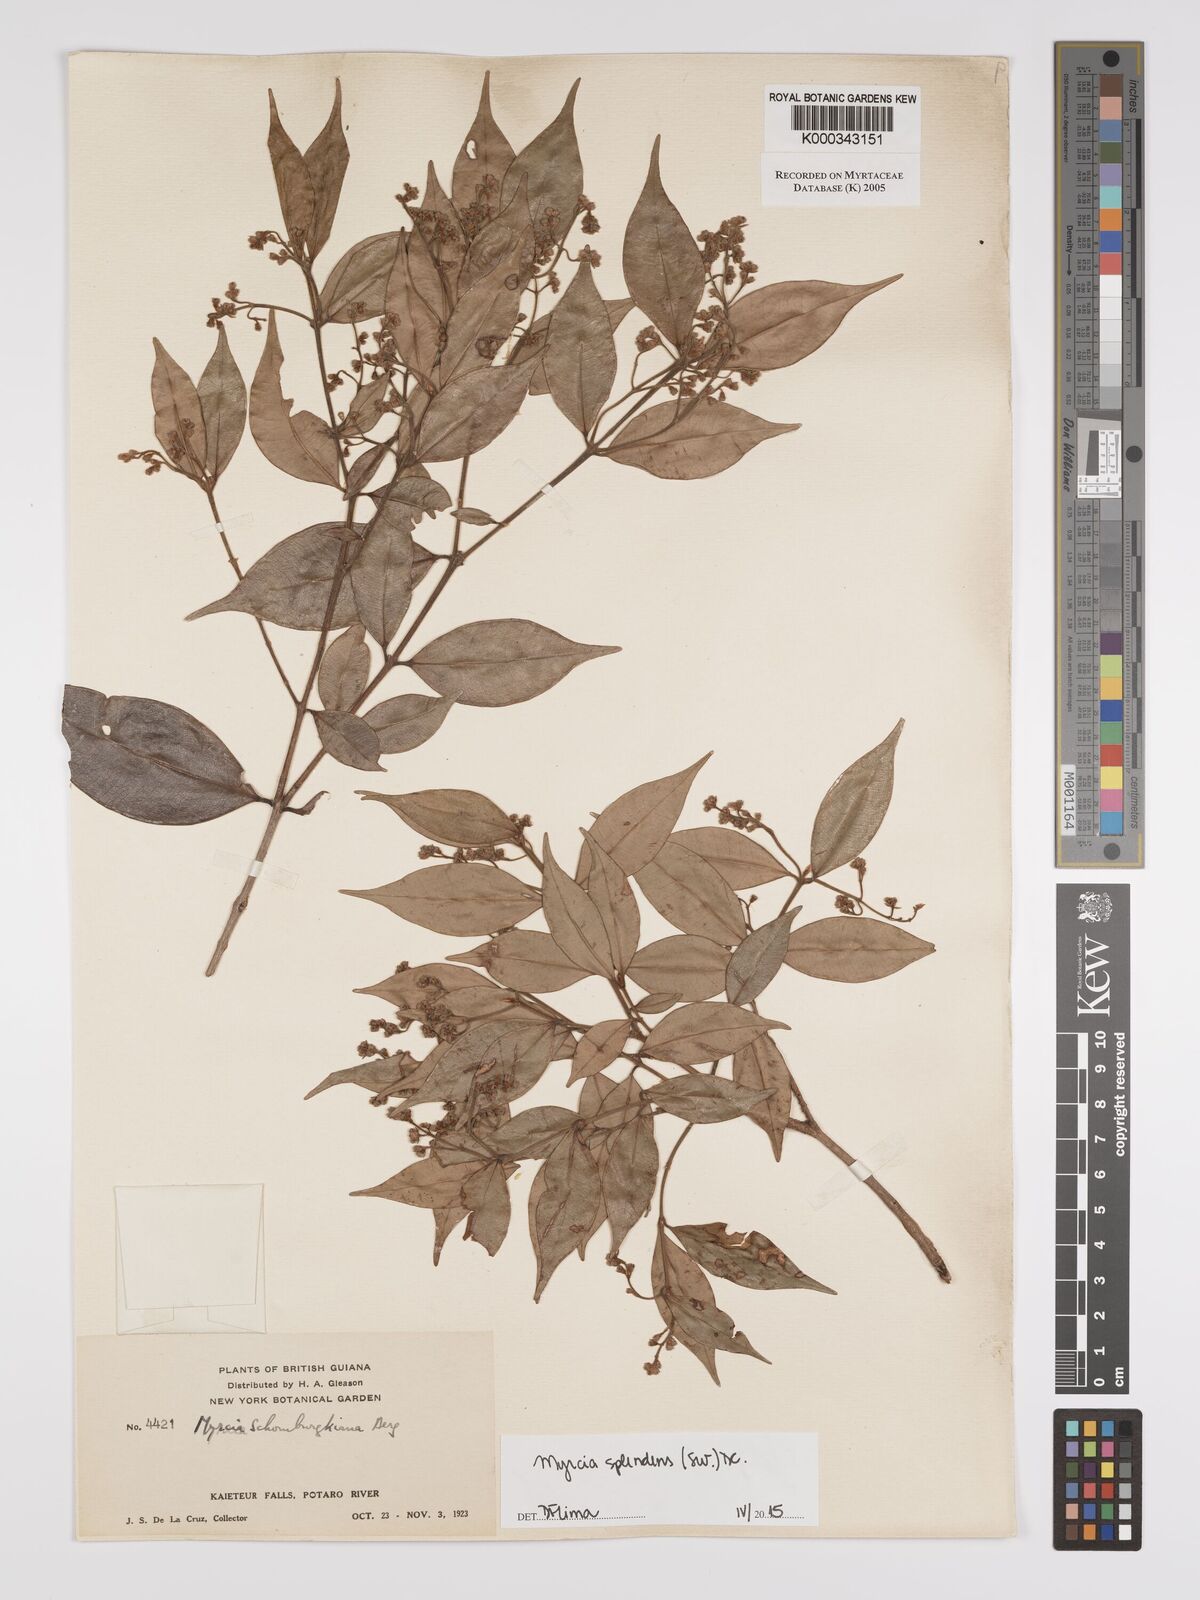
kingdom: Plantae
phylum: Tracheophyta
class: Magnoliopsida
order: Myrtales
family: Myrtaceae
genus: Myrcia
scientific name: Myrcia guianensis
